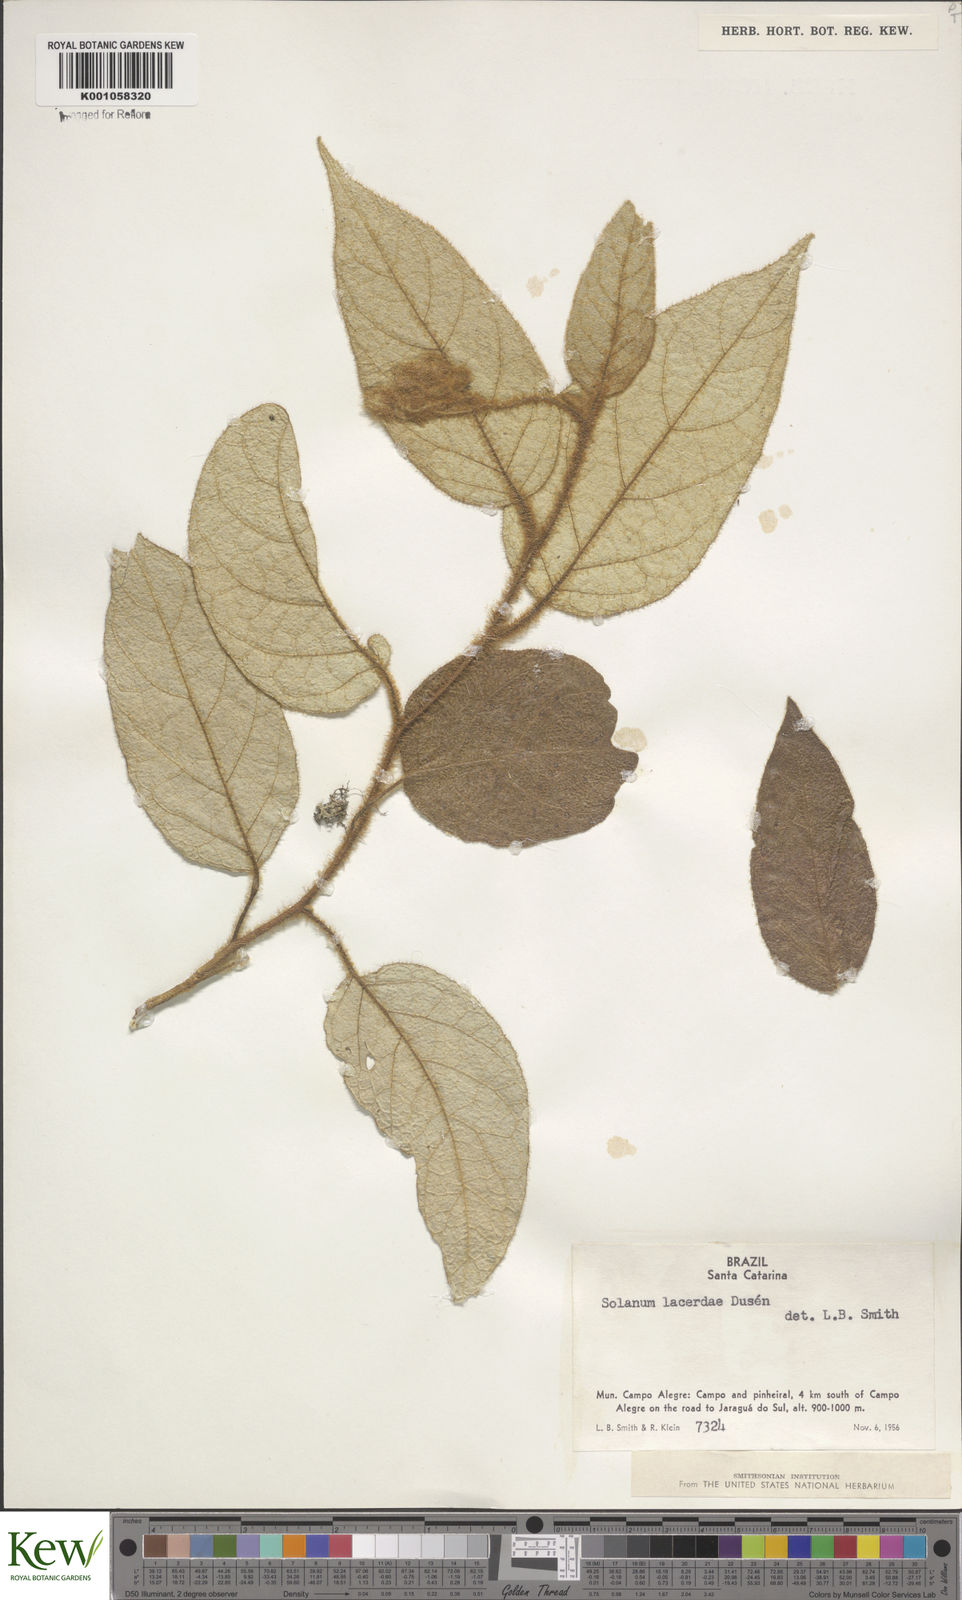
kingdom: Plantae
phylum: Tracheophyta
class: Magnoliopsida
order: Solanales
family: Solanaceae
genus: Solanum
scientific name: Solanum
